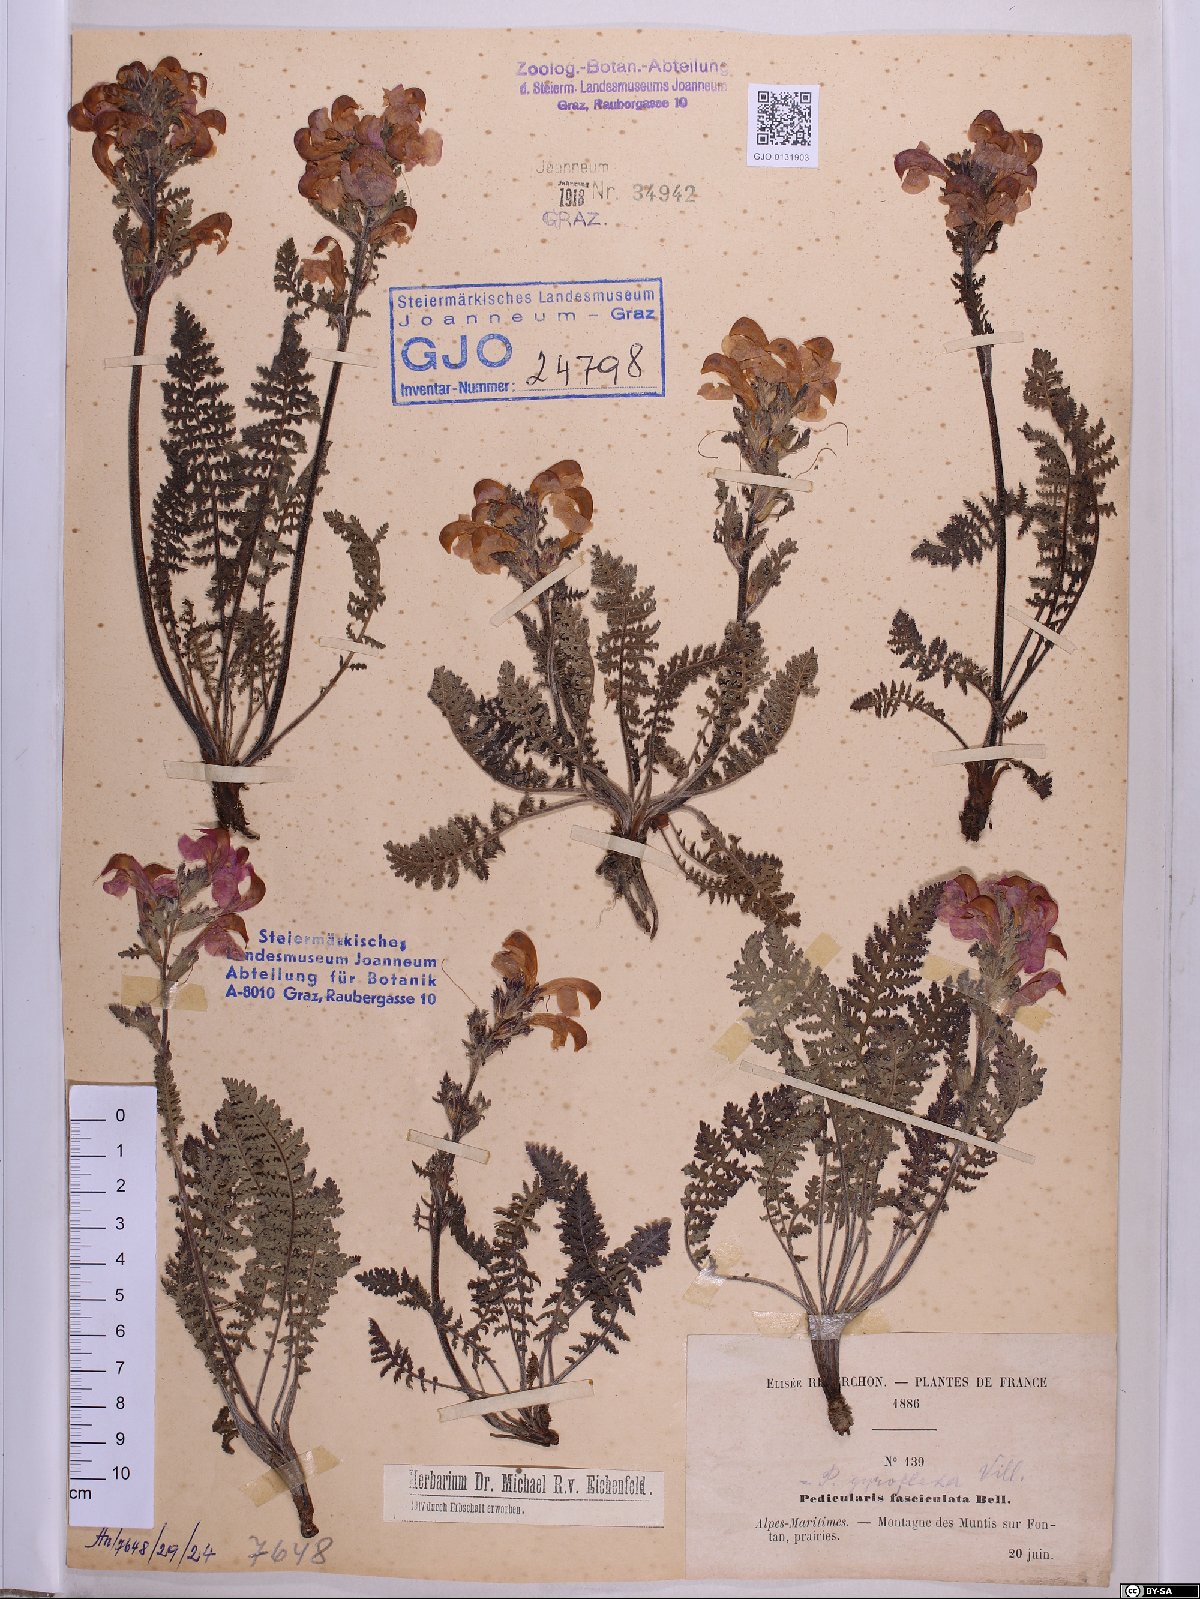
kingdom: Plantae
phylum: Tracheophyta
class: Magnoliopsida
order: Lamiales
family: Orobanchaceae
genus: Pedicularis
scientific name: Pedicularis gyroflexa
